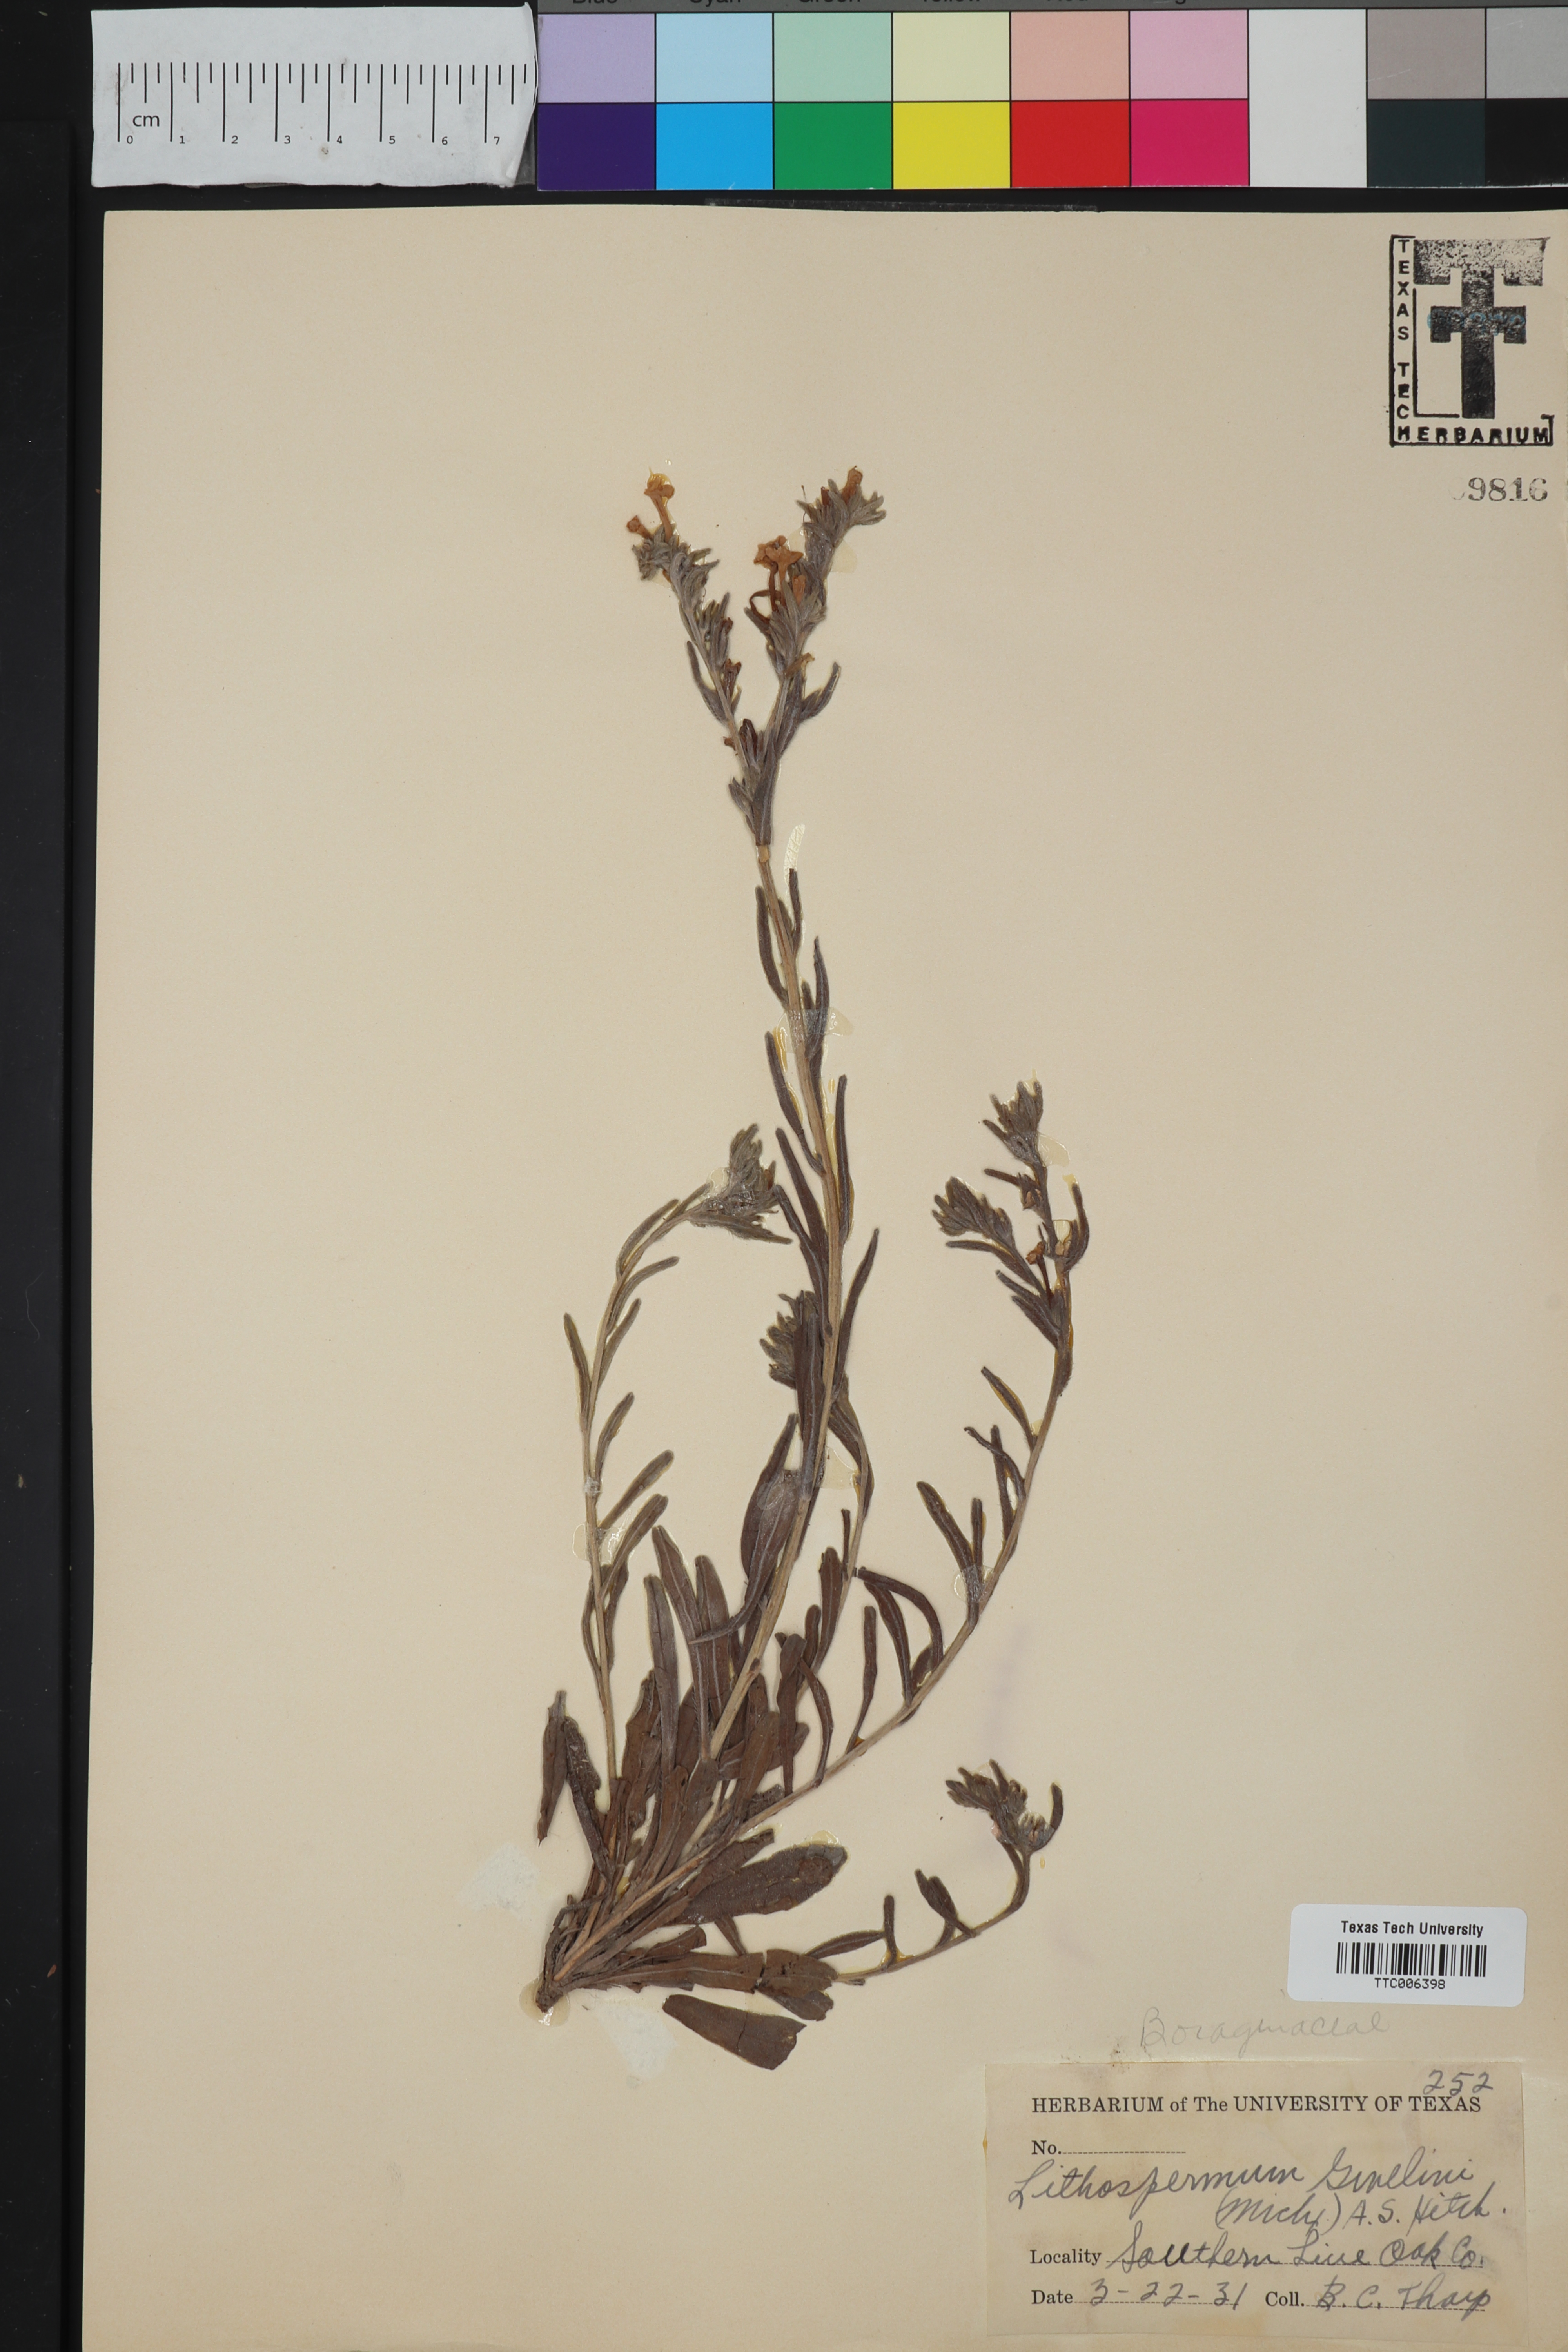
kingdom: Plantae
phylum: Tracheophyta
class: Magnoliopsida
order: Boraginales
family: Boraginaceae
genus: Lithospermum
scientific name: Lithospermum caroliniense
